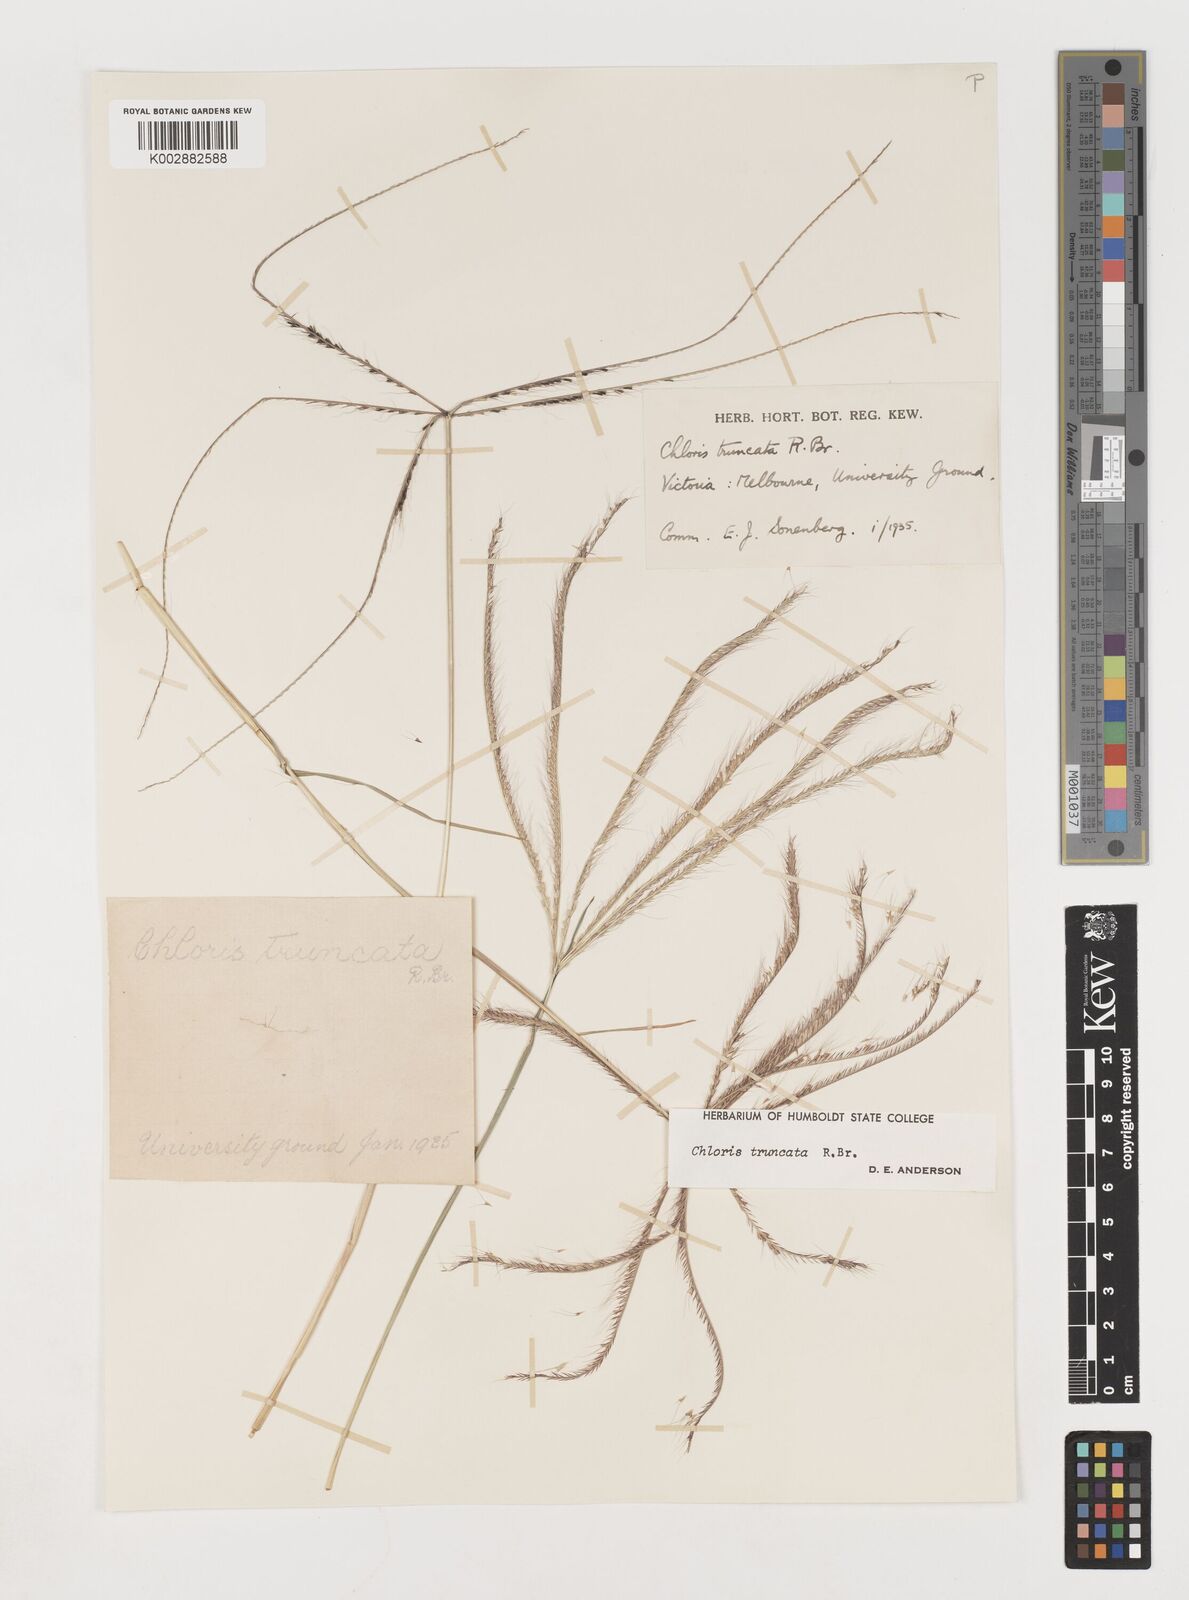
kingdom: Plantae
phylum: Tracheophyta
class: Liliopsida
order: Poales
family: Poaceae
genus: Chloris
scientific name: Chloris truncata
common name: Windmill-grass
